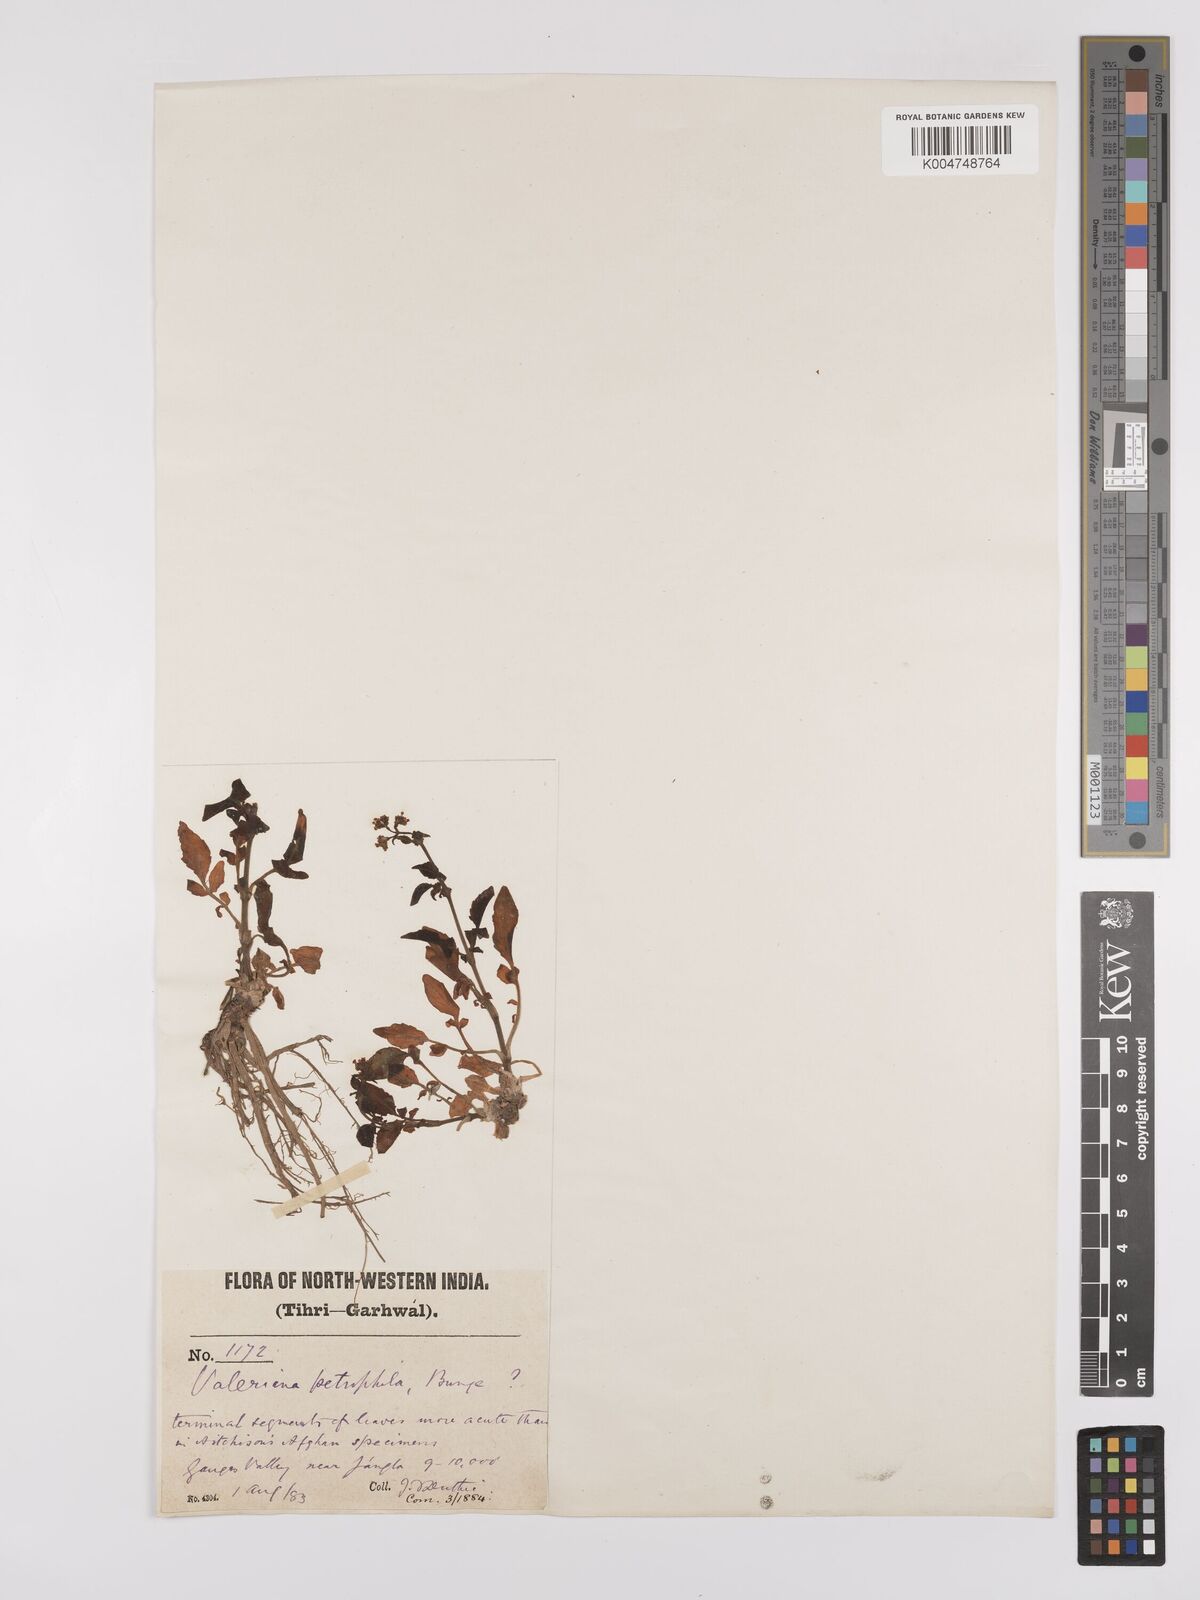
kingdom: Plantae
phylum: Tracheophyta
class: Magnoliopsida
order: Dipsacales
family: Caprifoliaceae
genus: Valeriana
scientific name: Valeriana
